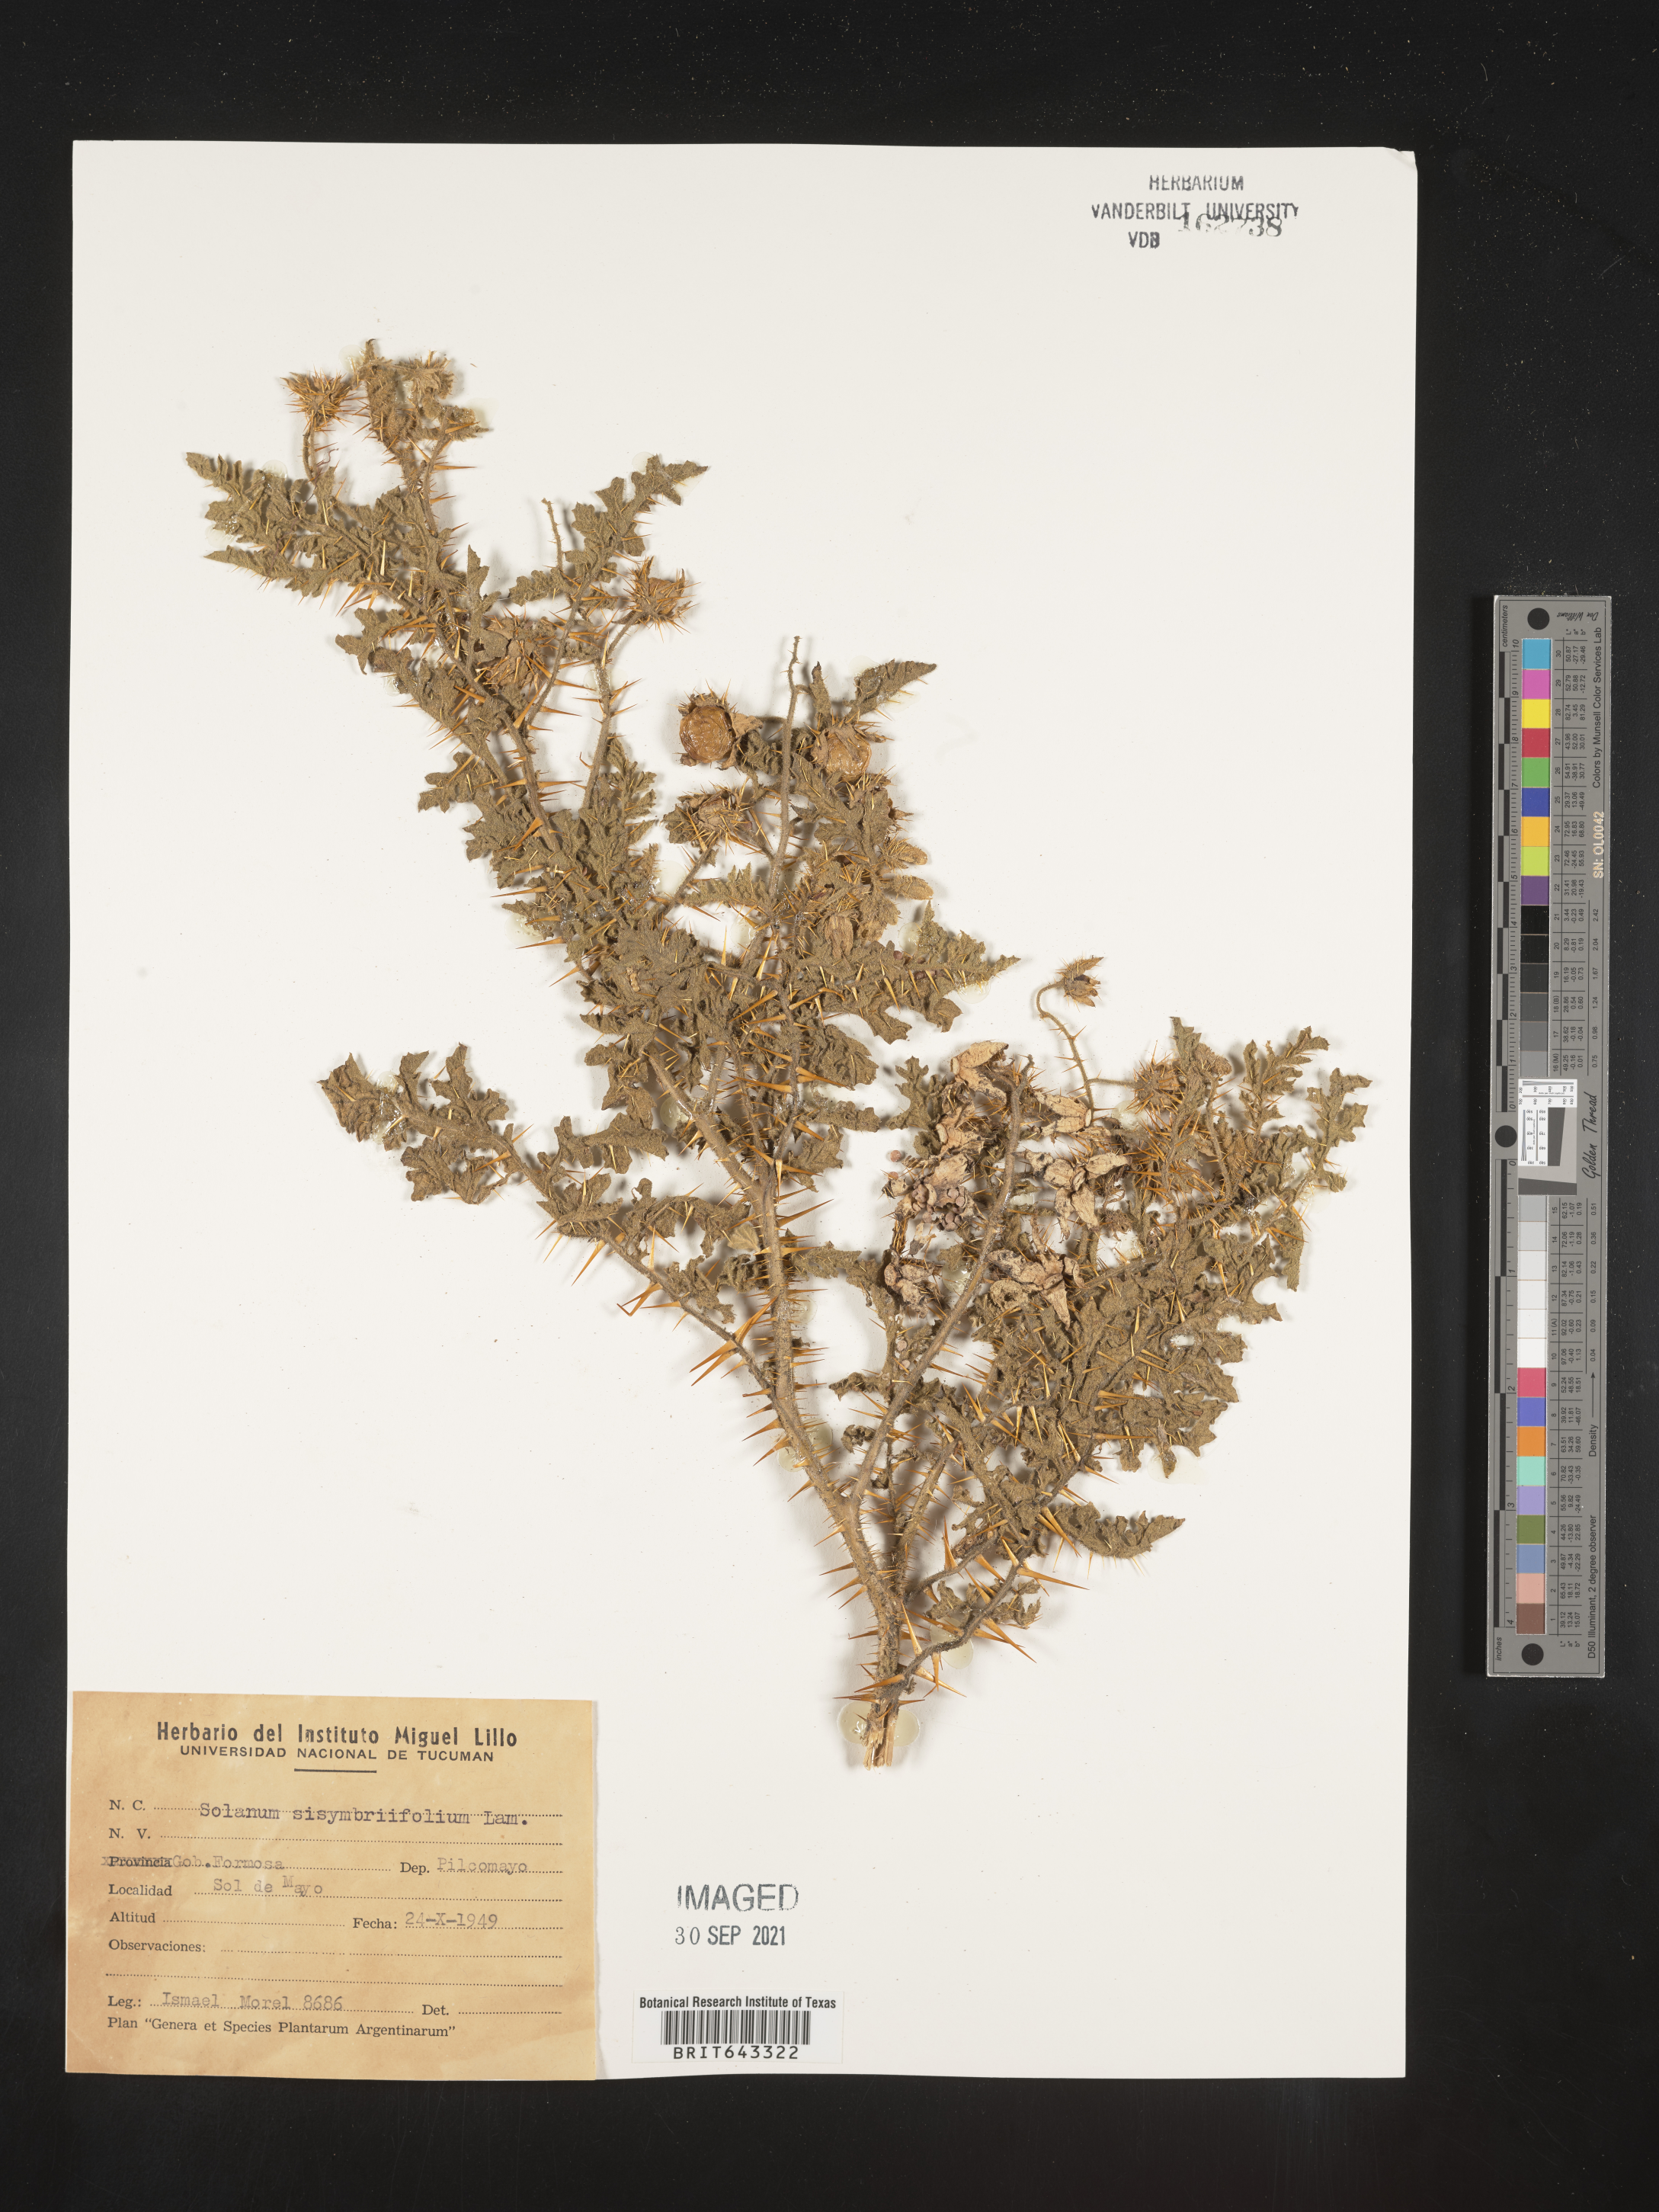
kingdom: Plantae
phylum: Tracheophyta
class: Magnoliopsida
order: Solanales
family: Solanaceae
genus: Solanum
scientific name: Solanum
